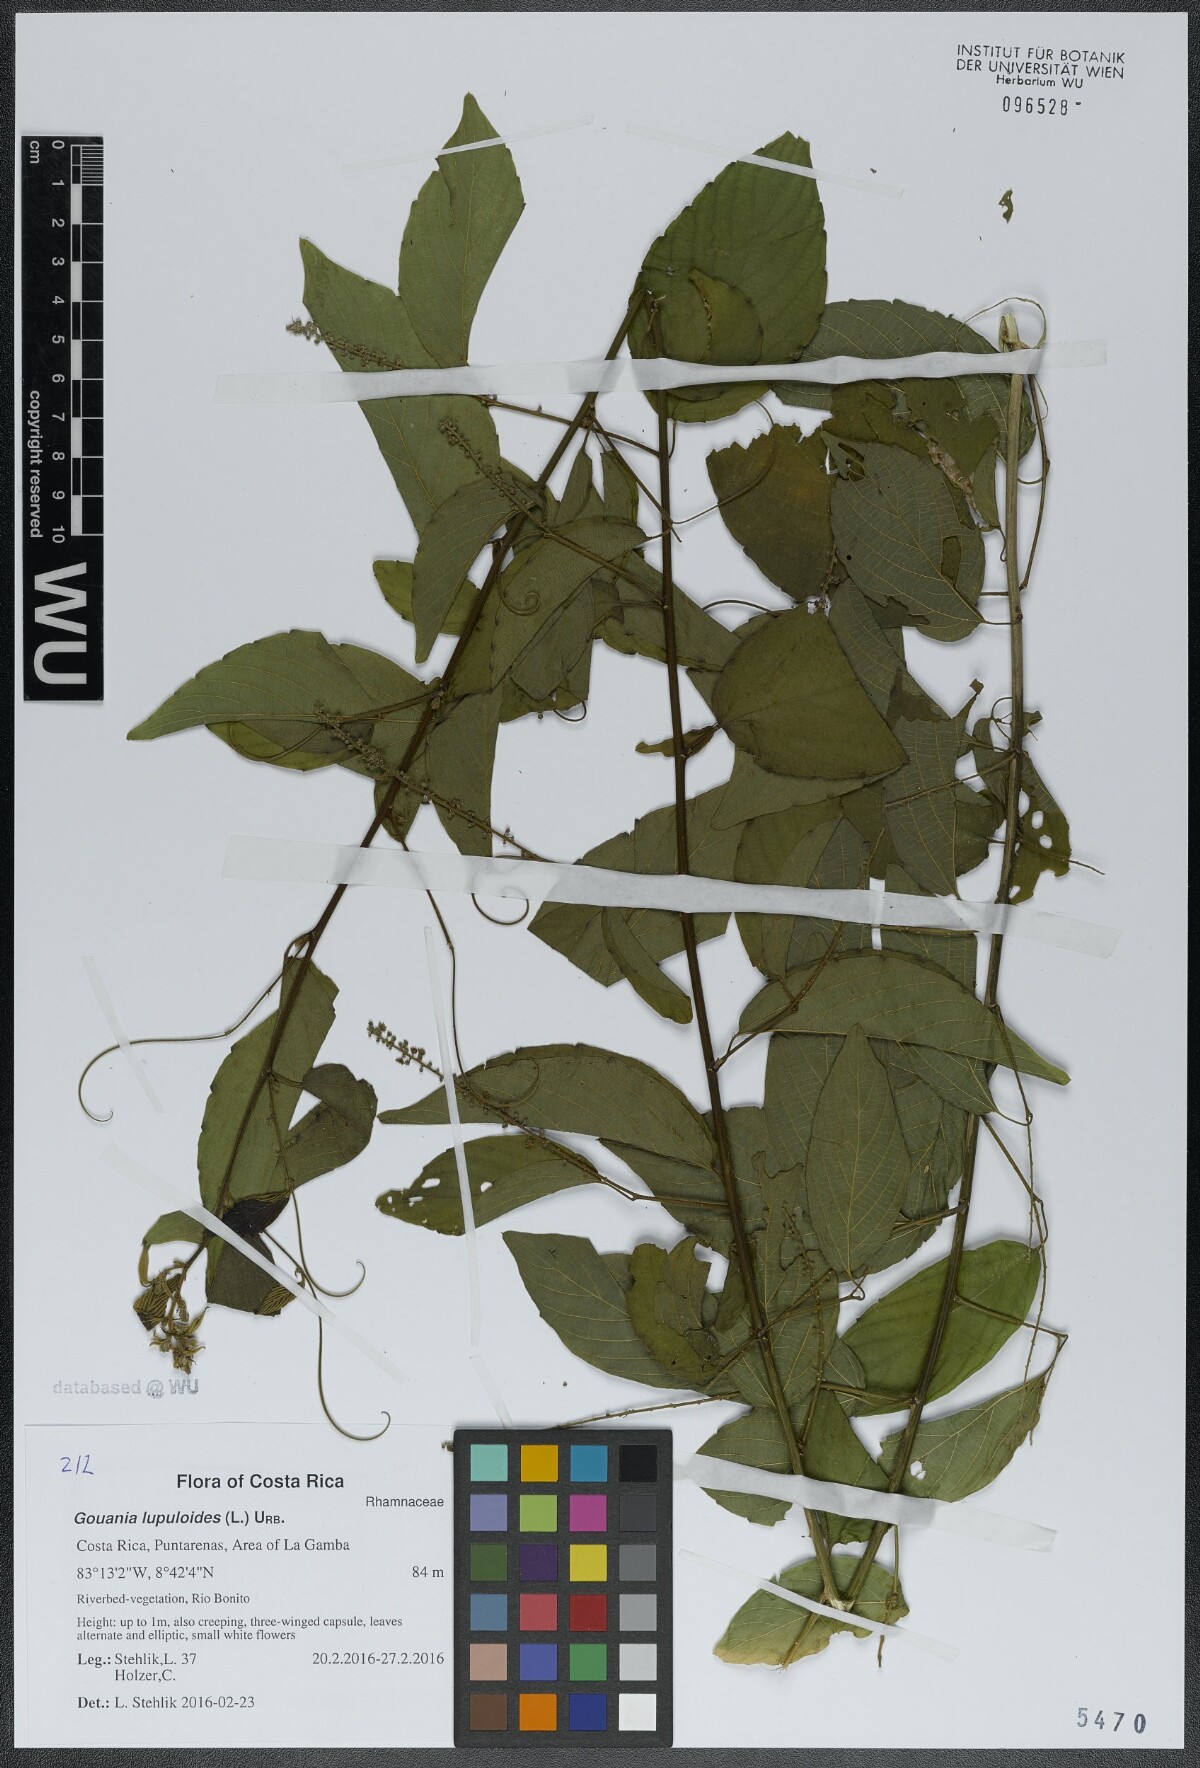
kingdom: Plantae
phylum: Tracheophyta
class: Magnoliopsida
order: Rosales
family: Rhamnaceae
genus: Gouania
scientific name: Gouania lupuloides
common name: Chewstick
